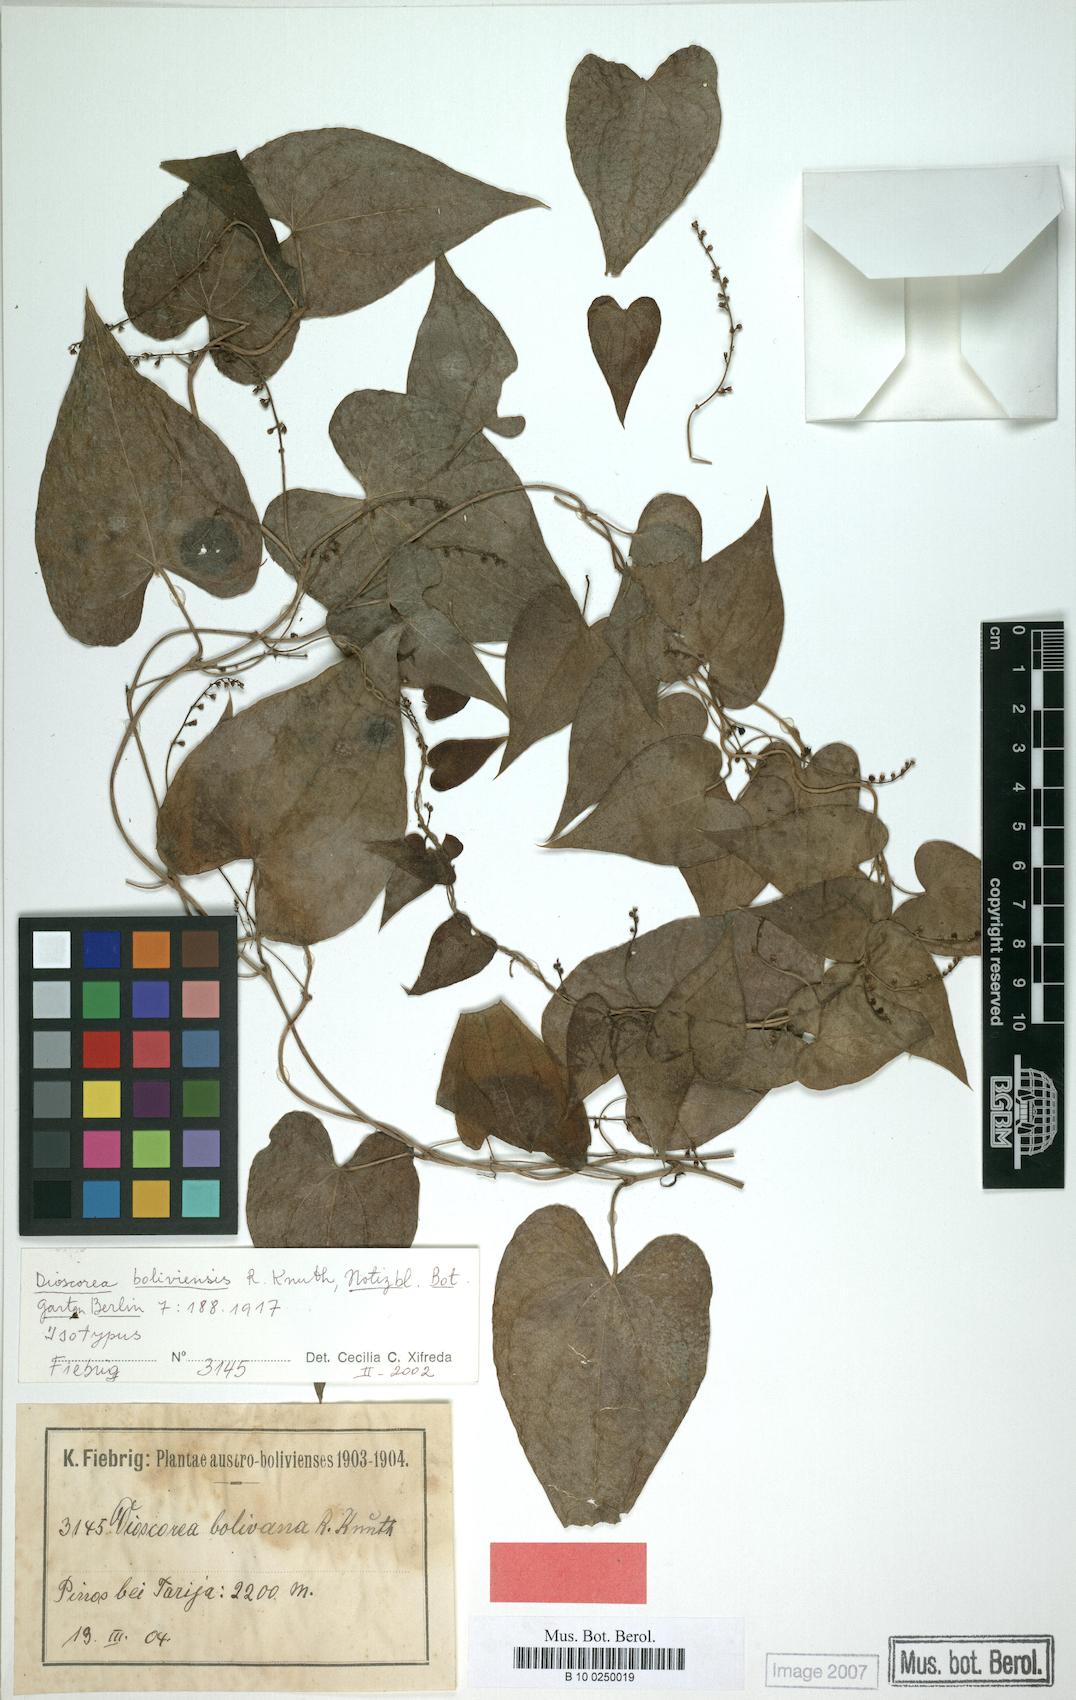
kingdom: Plantae
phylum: Tracheophyta
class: Liliopsida
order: Dioscoreales
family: Dioscoreaceae
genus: Dioscorea
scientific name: Dioscorea glomerulata
